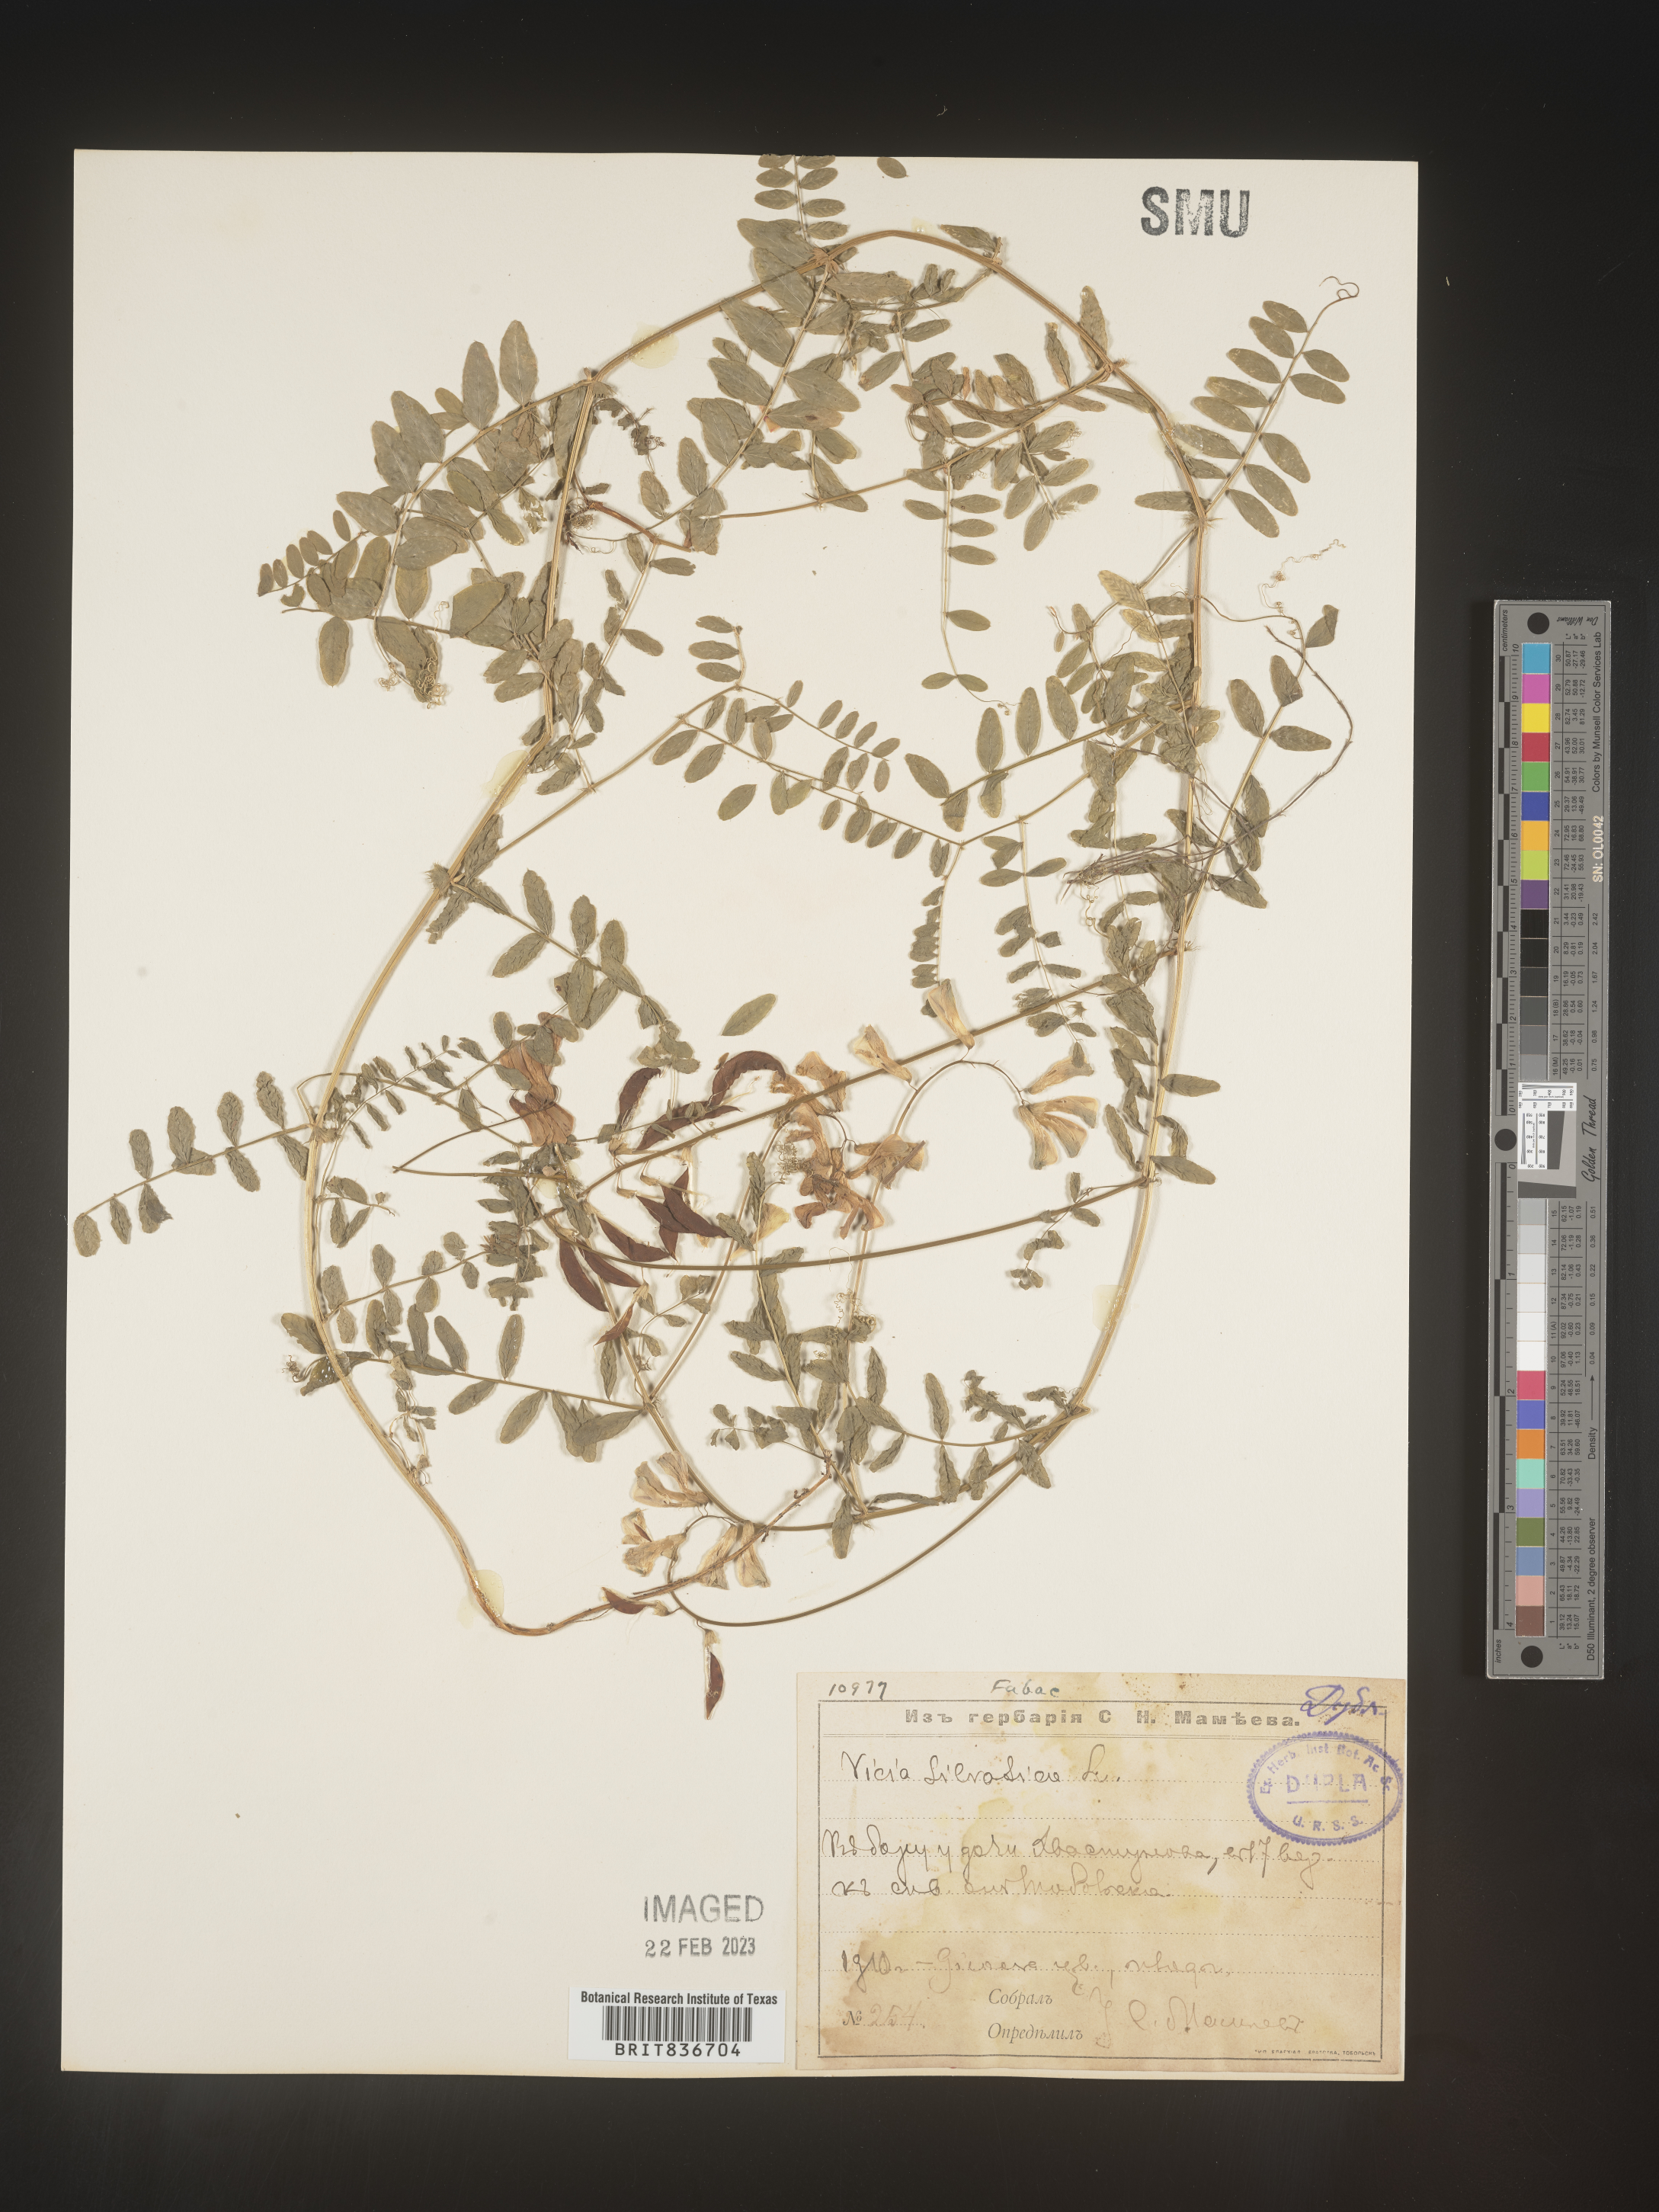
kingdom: Plantae
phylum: Tracheophyta
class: Magnoliopsida
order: Fabales
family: Fabaceae
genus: Vicia
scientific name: Vicia sylvatica
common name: Wood vetch
